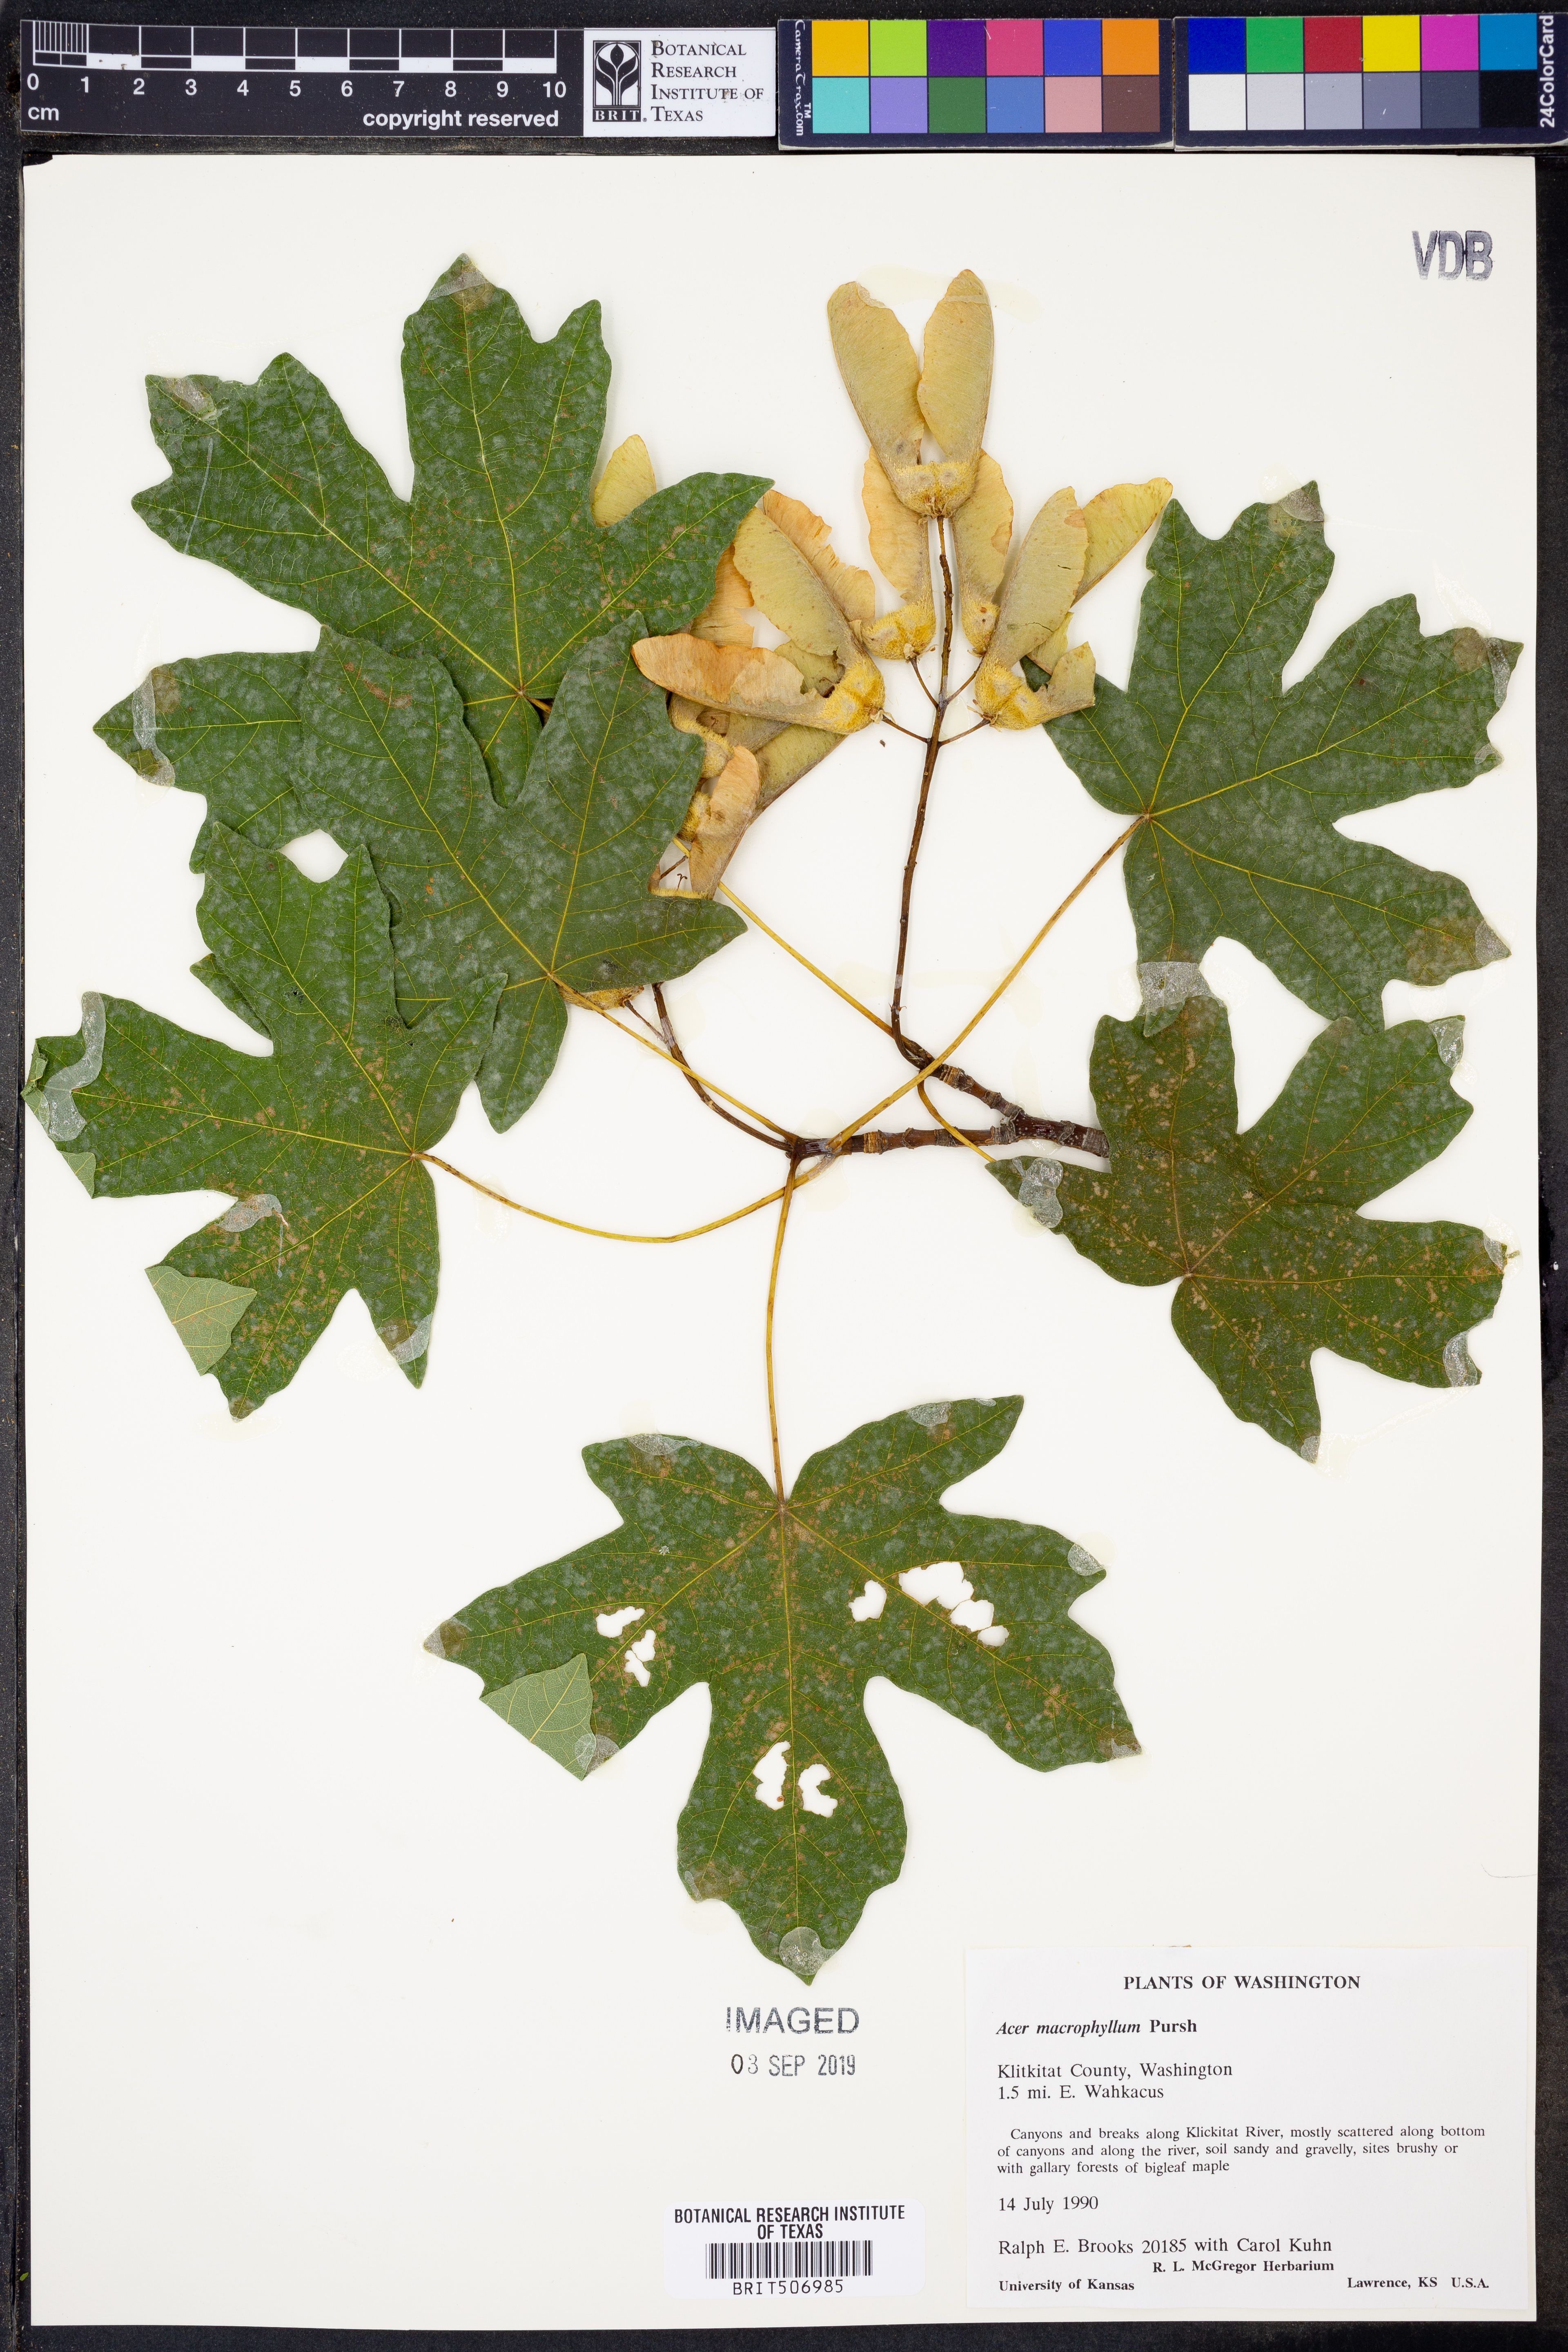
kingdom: Plantae
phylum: Tracheophyta
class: Magnoliopsida
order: Sapindales
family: Sapindaceae
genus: Acer
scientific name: Acer macrophyllum
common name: Oregon maple
